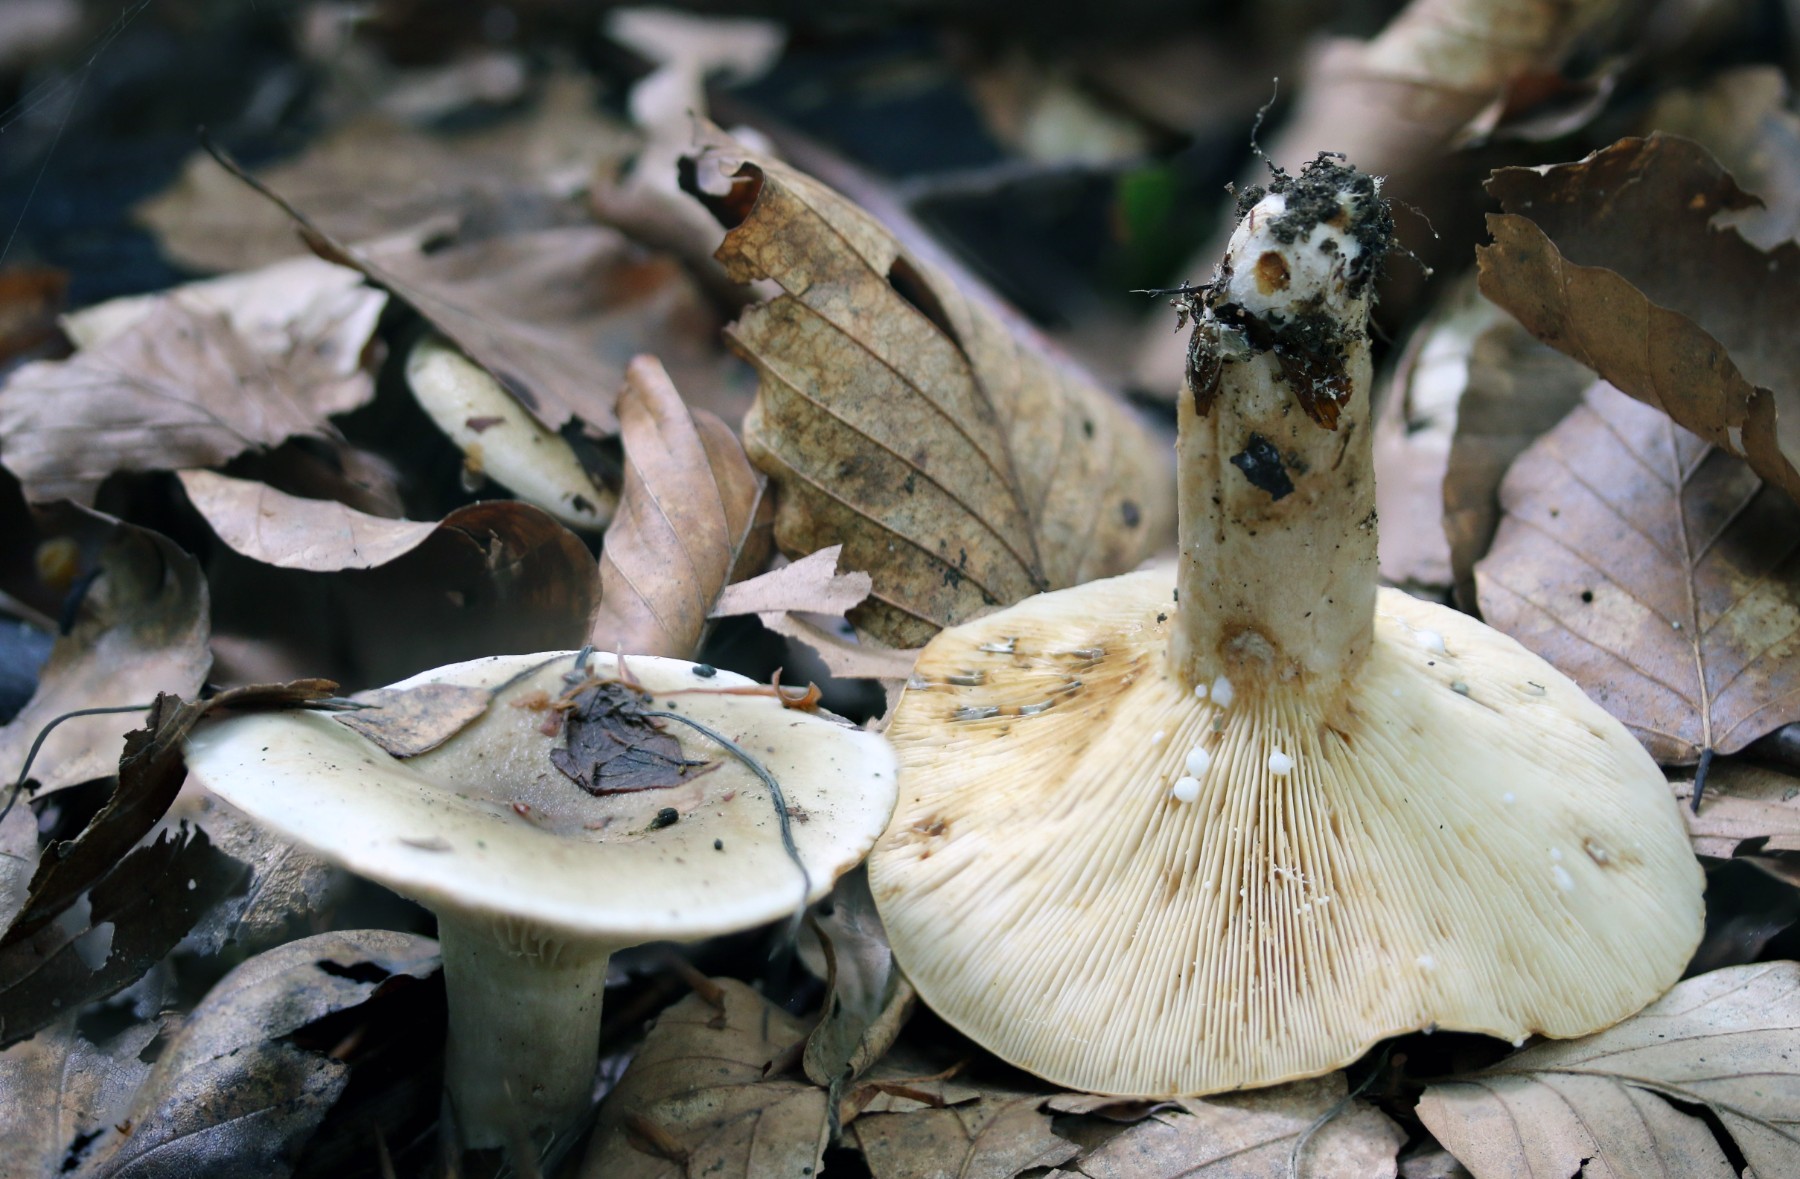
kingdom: Fungi
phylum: Basidiomycota
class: Agaricomycetes
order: Russulales
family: Russulaceae
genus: Lactarius
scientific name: Lactarius fluens
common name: lysrandet mælkehat
